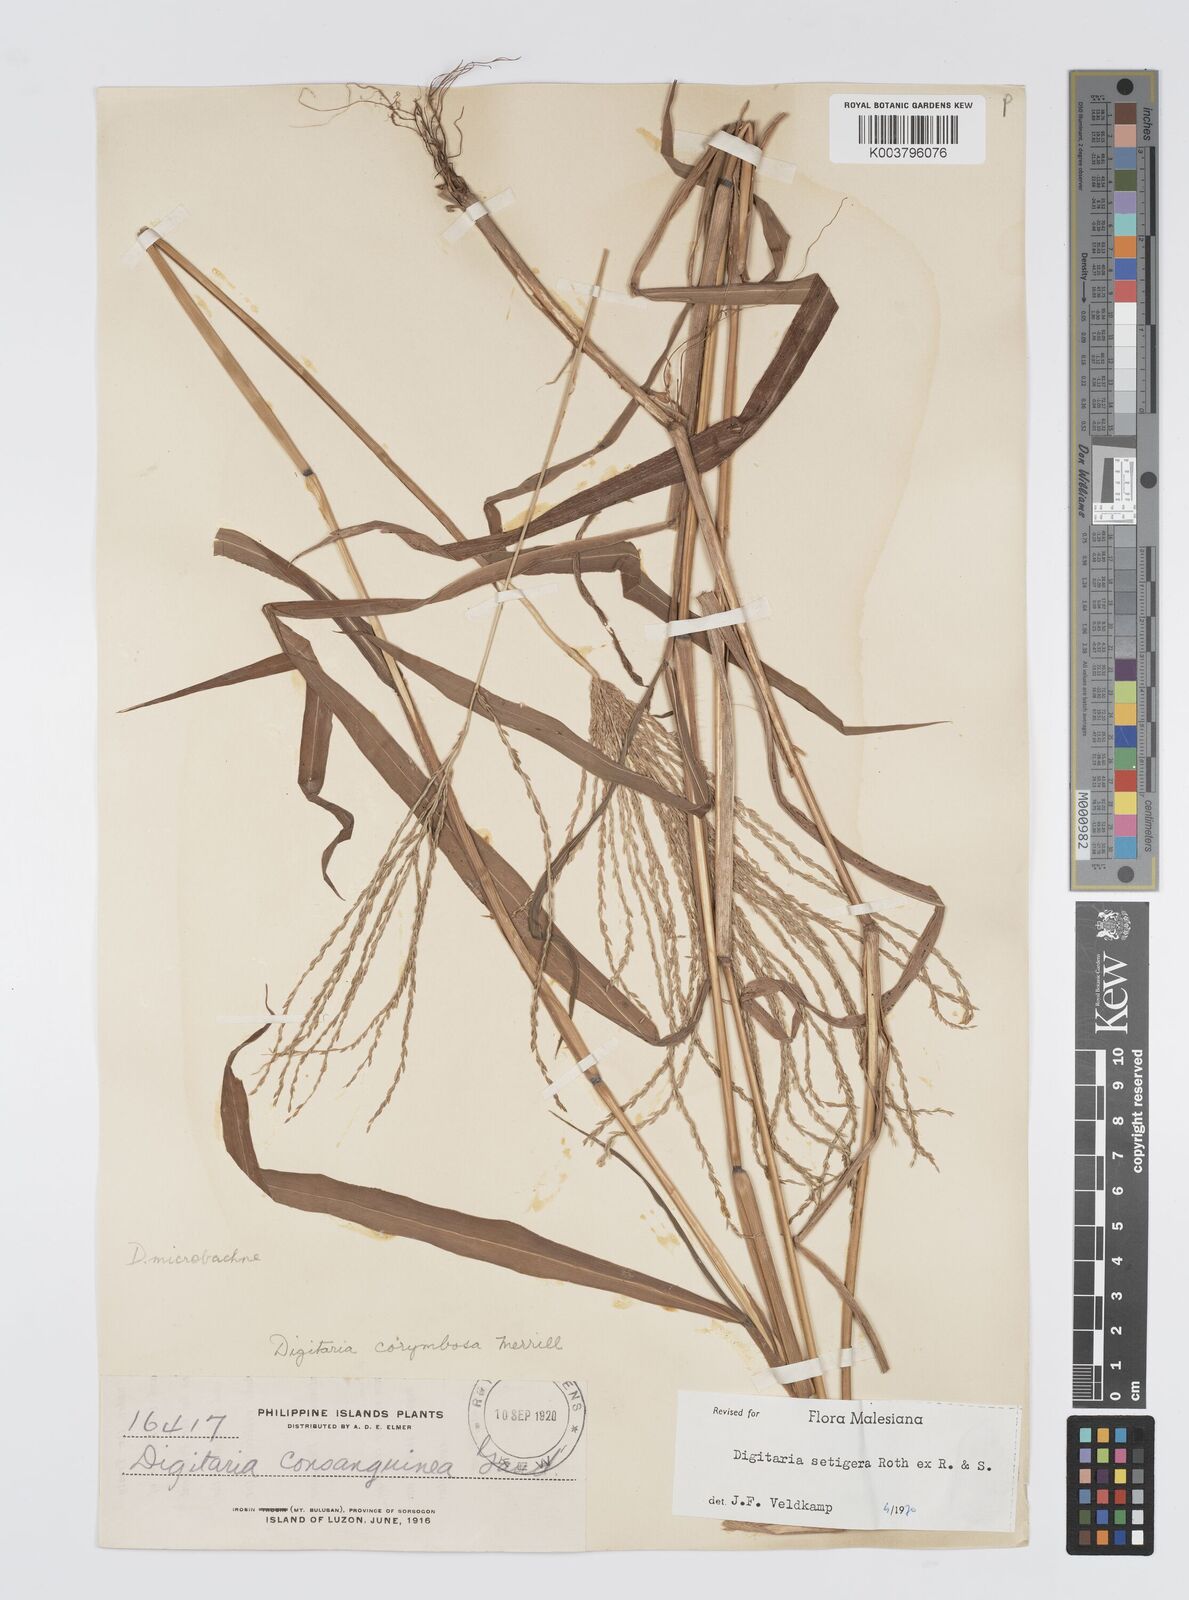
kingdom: Plantae
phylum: Tracheophyta
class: Liliopsida
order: Poales
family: Poaceae
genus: Digitaria
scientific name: Digitaria setigera
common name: East indian crabgrass
